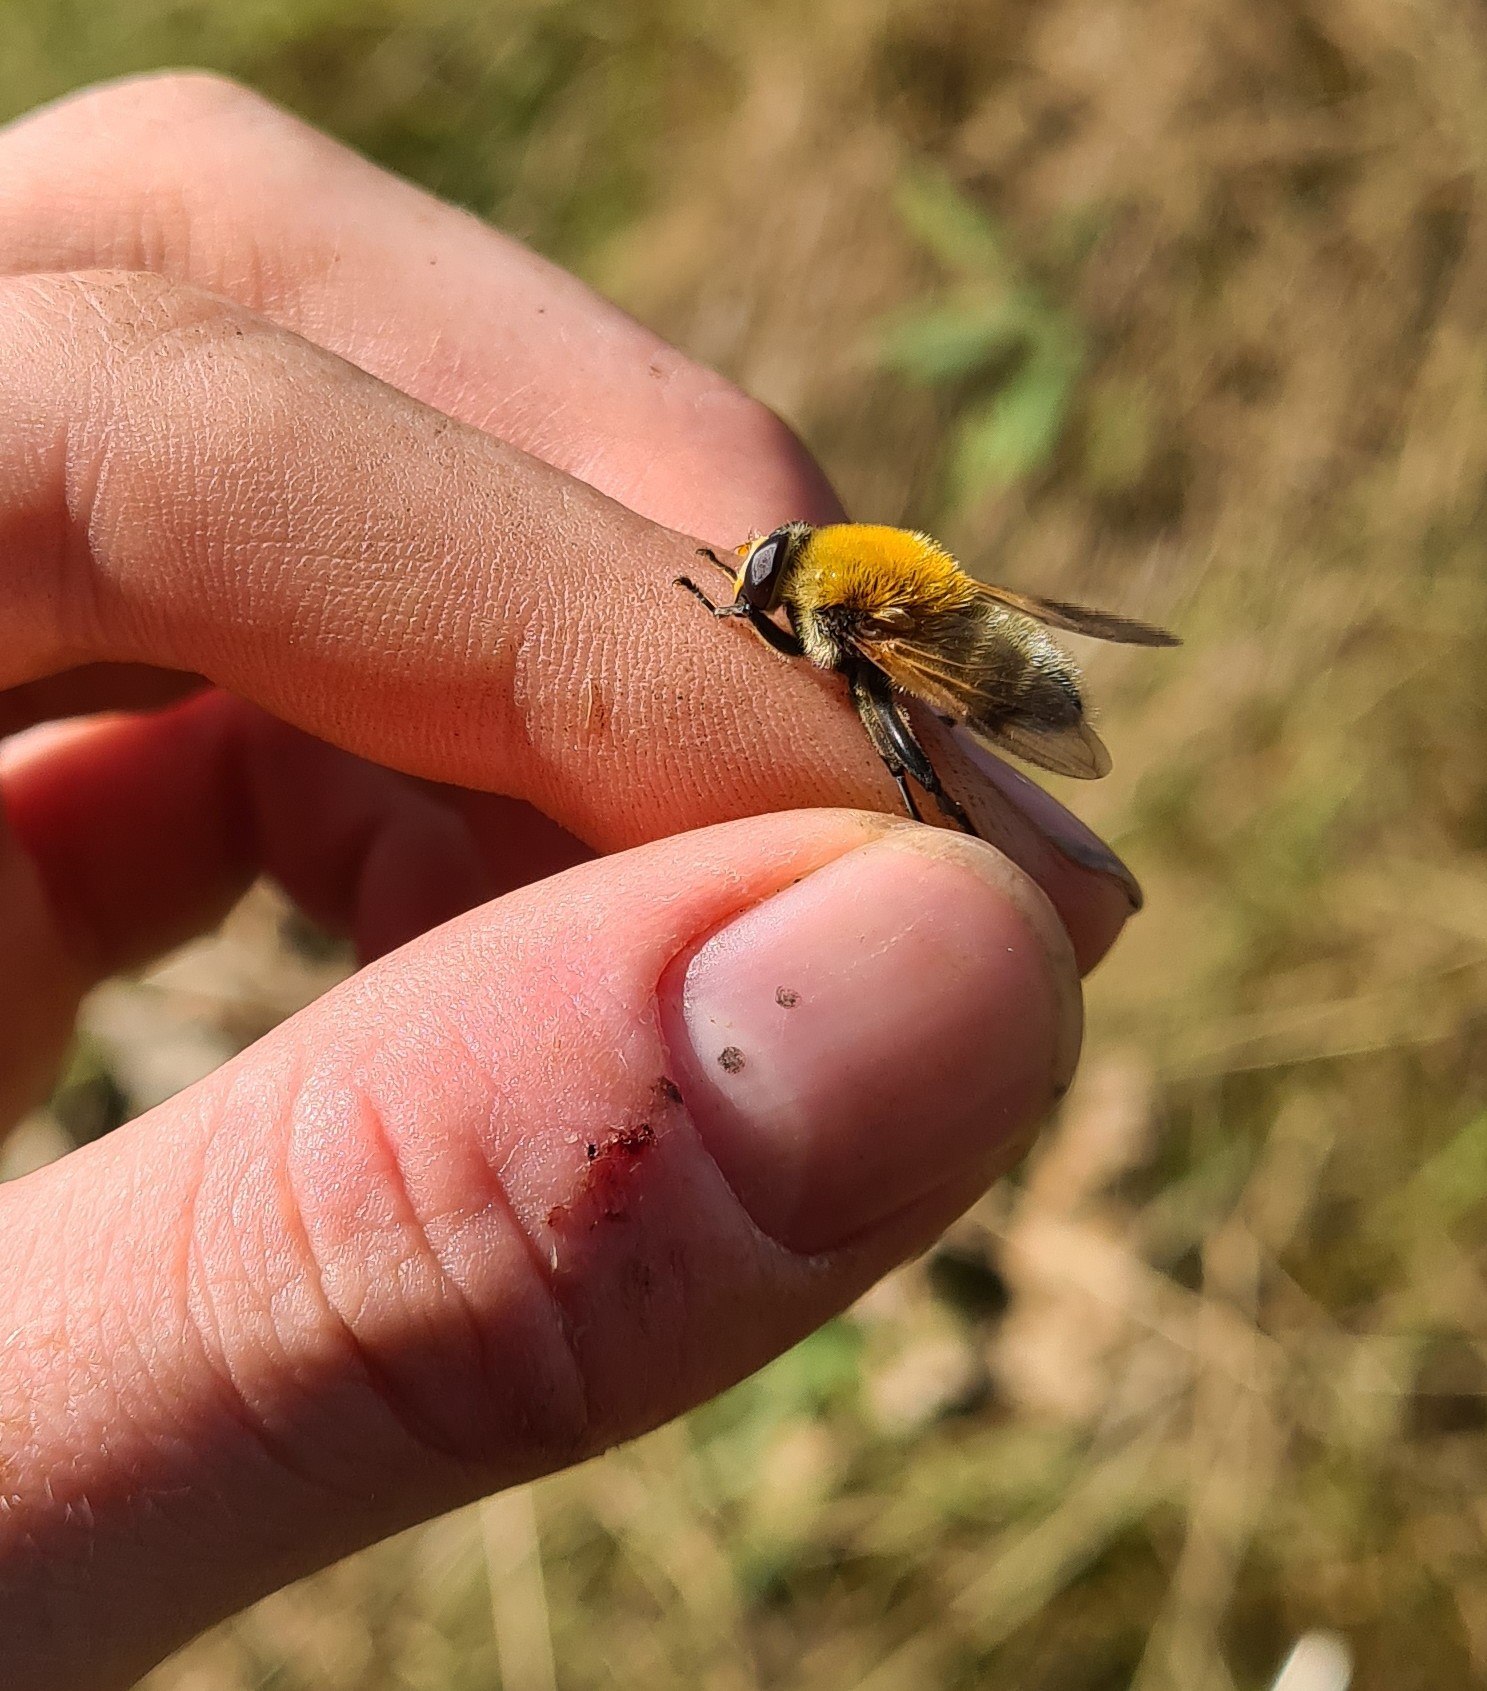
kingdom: Animalia
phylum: Arthropoda
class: Insecta
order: Diptera
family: Syrphidae
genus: Sericomyia
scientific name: Sericomyia superbiens
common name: Brun bjørnesvirreflue
